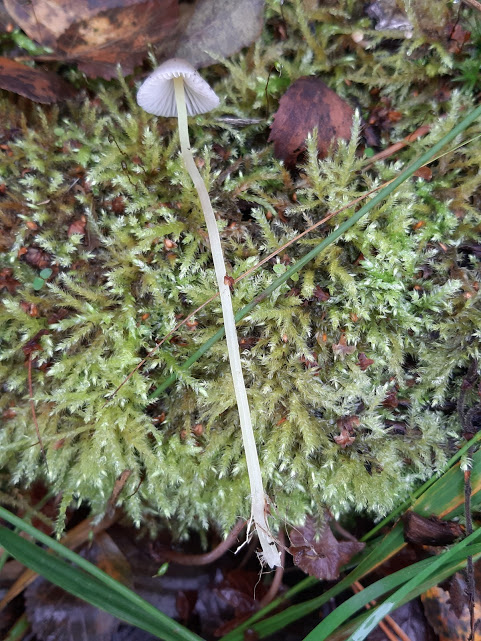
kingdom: Fungi
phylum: Basidiomycota
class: Agaricomycetes
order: Agaricales
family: Mycenaceae
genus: Mycena
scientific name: Mycena epipterygia
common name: gulstokket huesvamp
